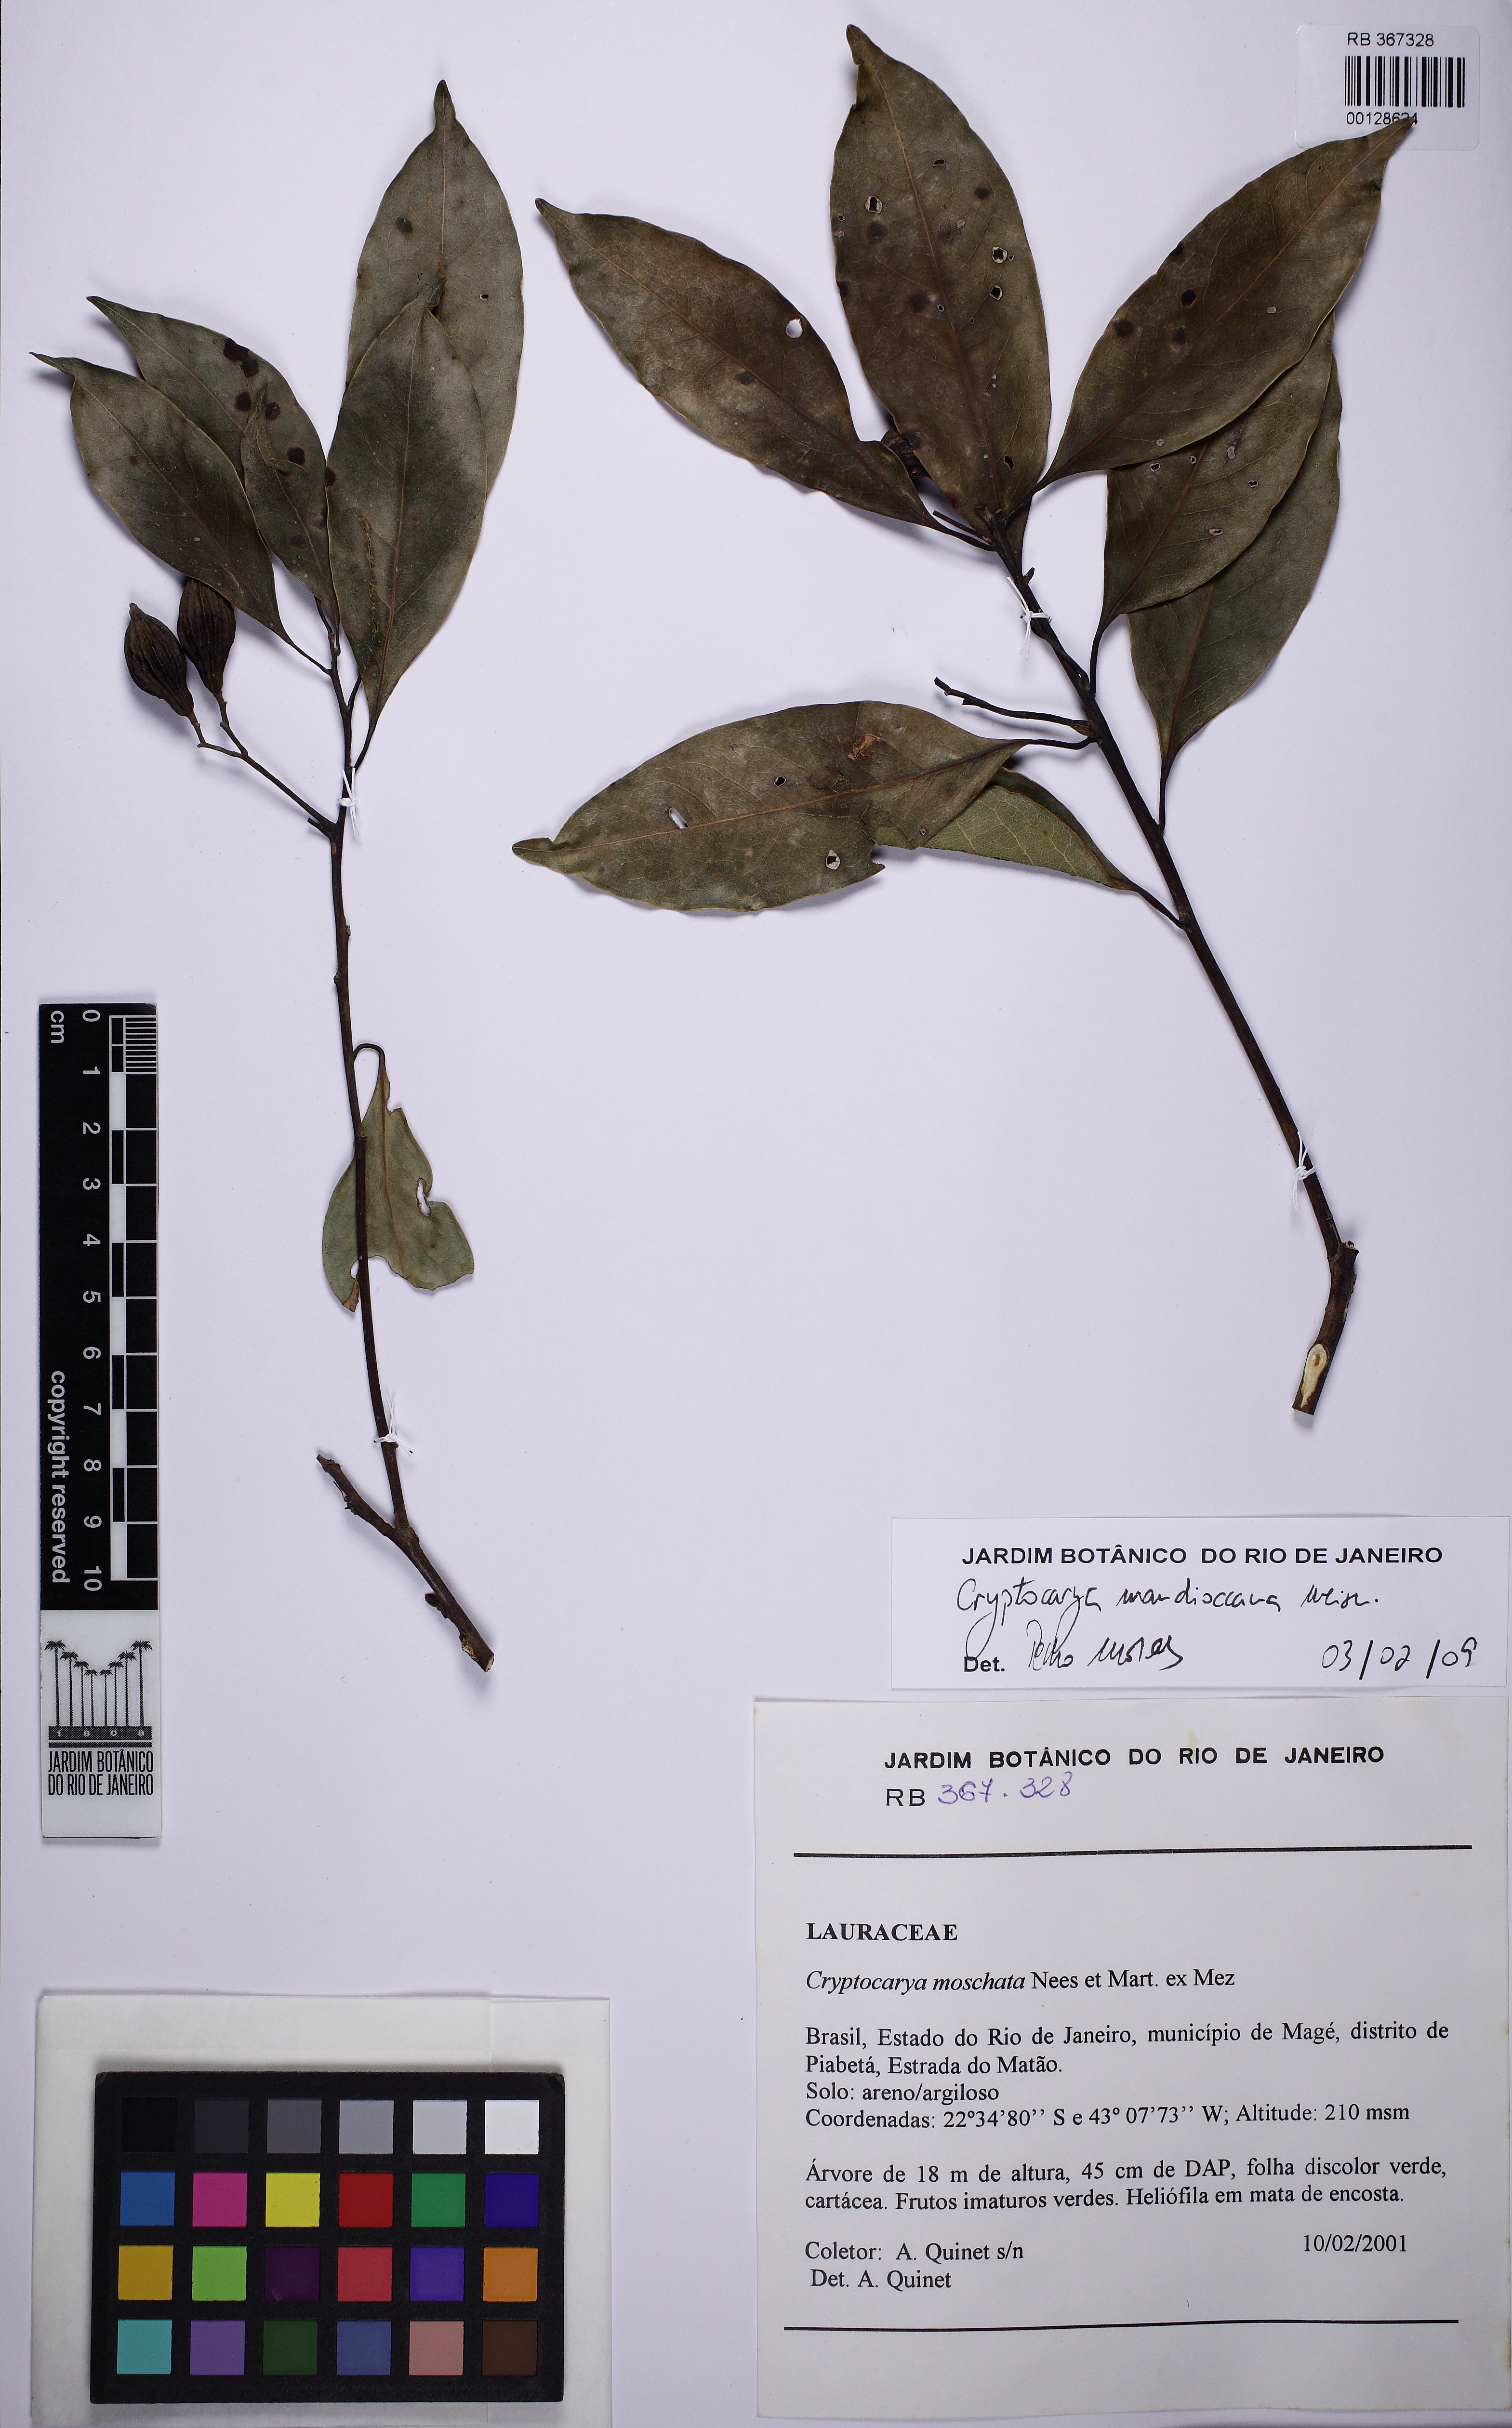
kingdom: Plantae
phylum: Tracheophyta
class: Magnoliopsida
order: Laurales
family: Lauraceae
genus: Cryptocarya
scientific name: Cryptocarya mandioccana
